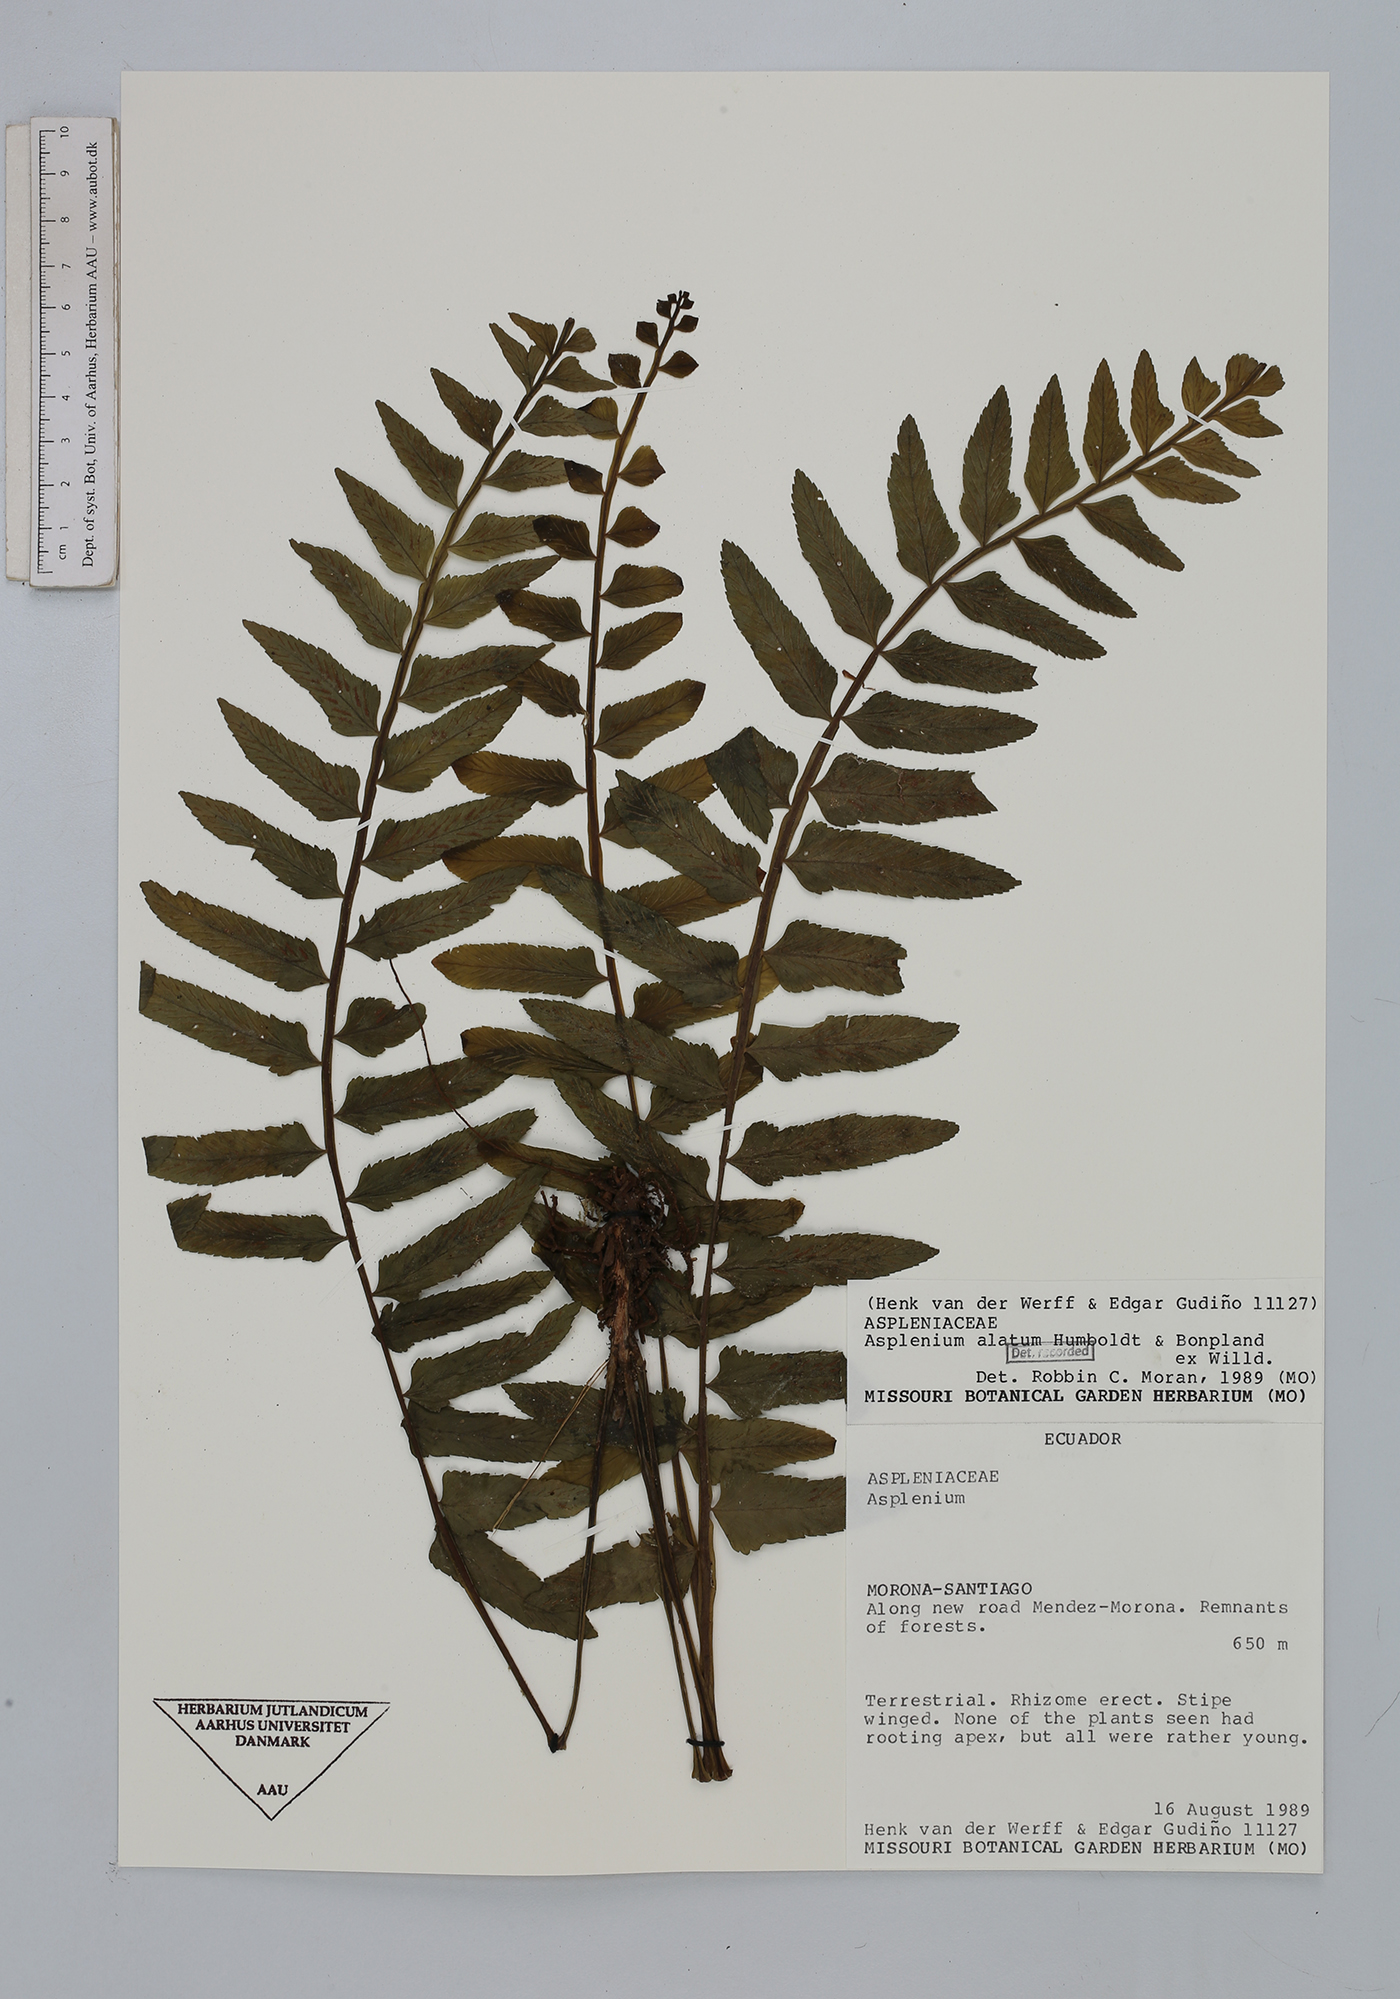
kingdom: Plantae
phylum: Tracheophyta
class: Polypodiopsida
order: Polypodiales
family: Aspleniaceae
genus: Asplenium
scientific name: Asplenium alatum
